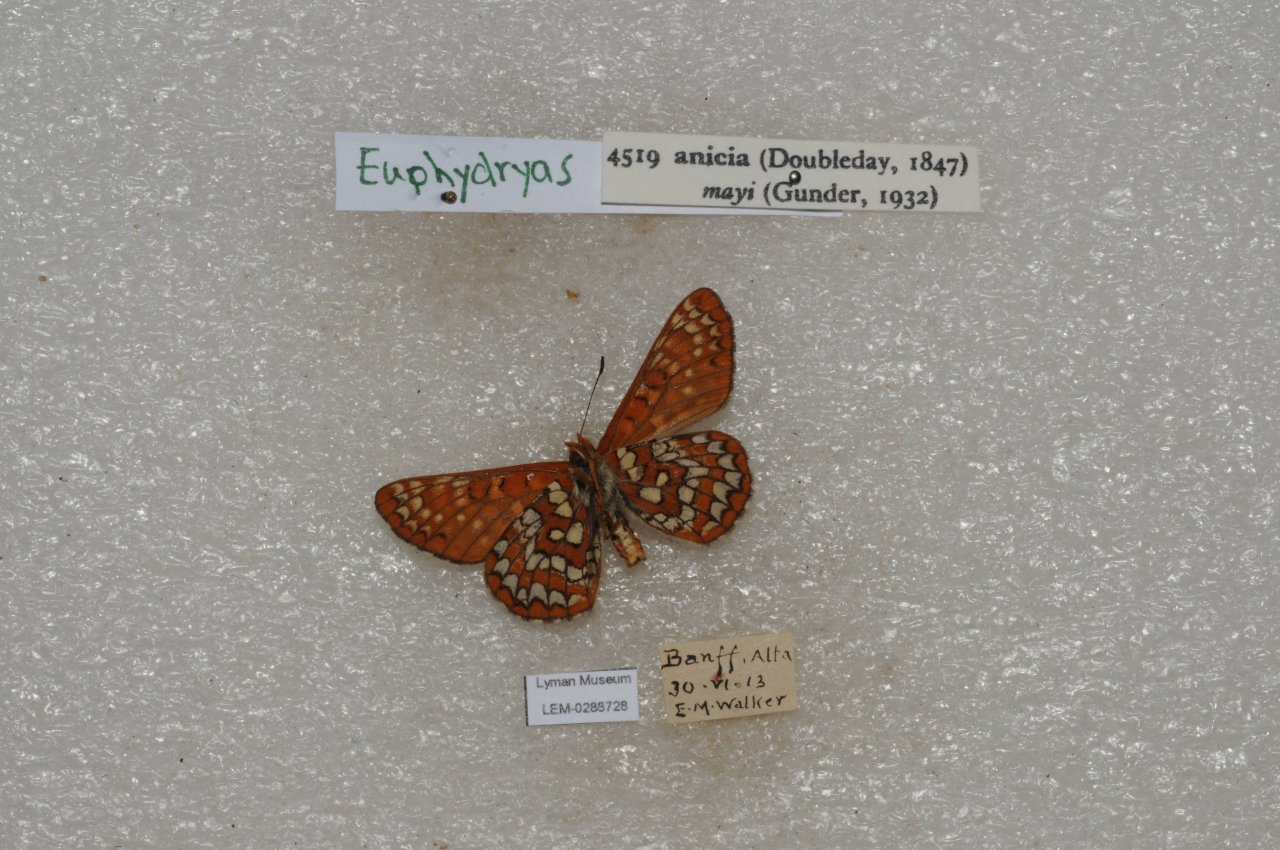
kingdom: Animalia
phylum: Arthropoda
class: Insecta
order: Lepidoptera
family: Nymphalidae
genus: Occidryas
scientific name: Occidryas anicia
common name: Anicia Checkerspot
